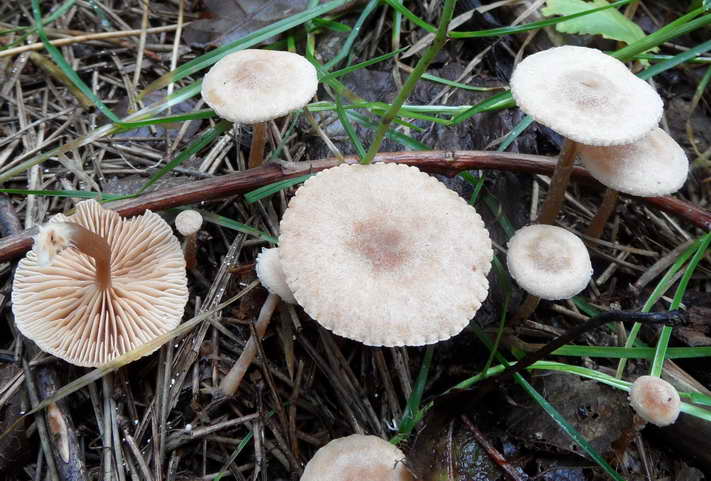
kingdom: Fungi
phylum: Basidiomycota
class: Agaricomycetes
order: Agaricales
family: Tubariaceae
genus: Tubaria
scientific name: Tubaria conspersa
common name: bleg fnughat
